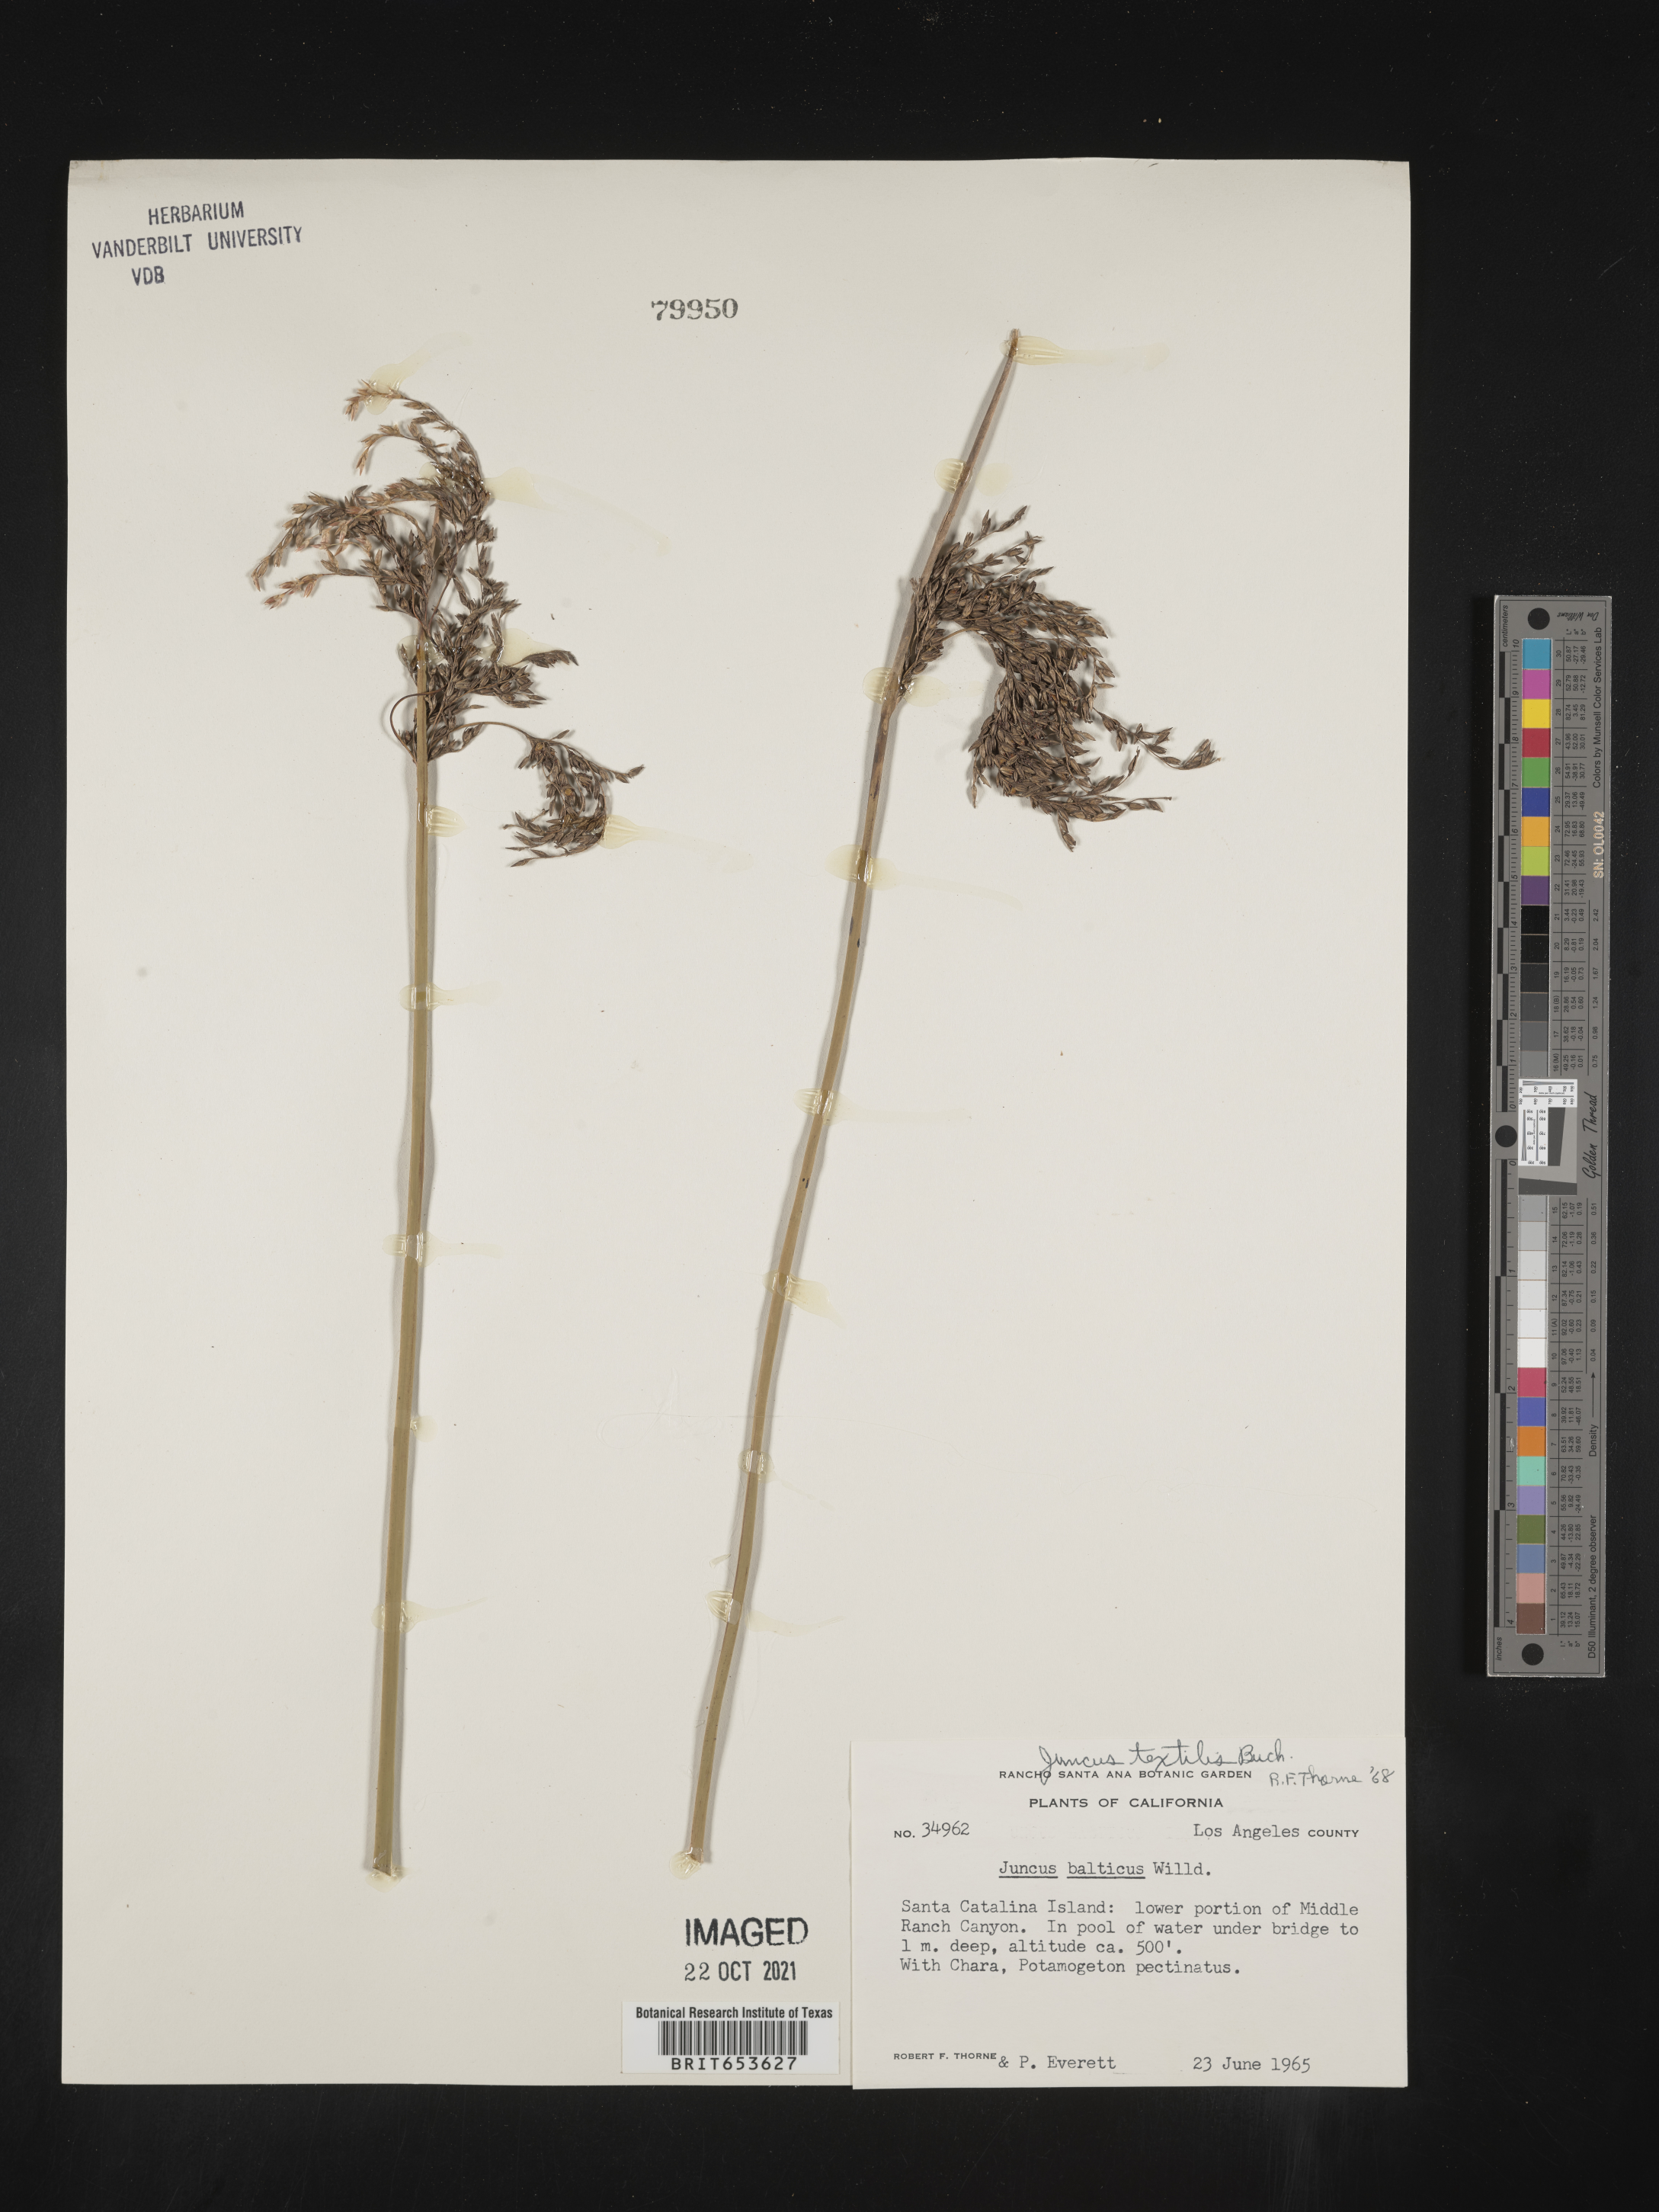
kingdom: Plantae
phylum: Tracheophyta
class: Liliopsida
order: Poales
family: Juncaceae
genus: Juncus
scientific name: Juncus textilis
